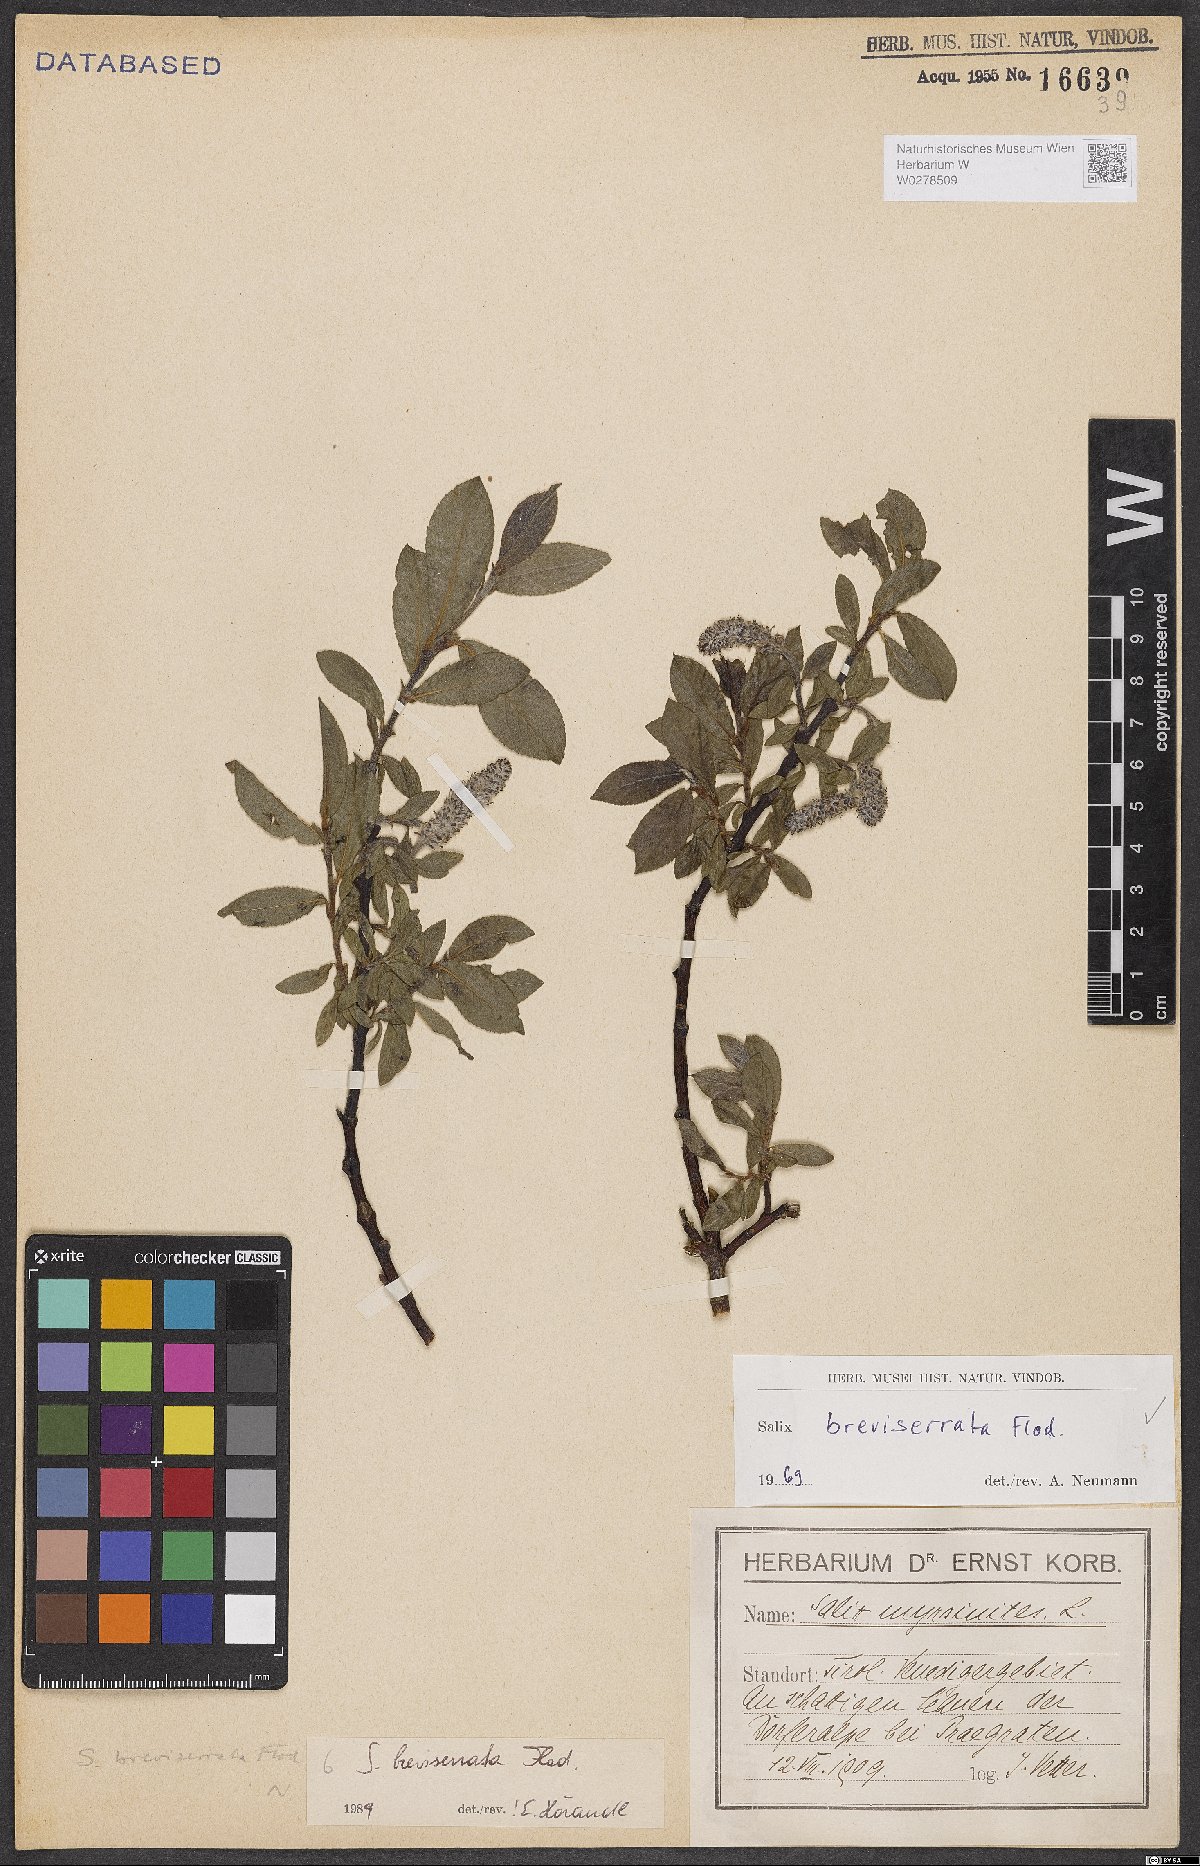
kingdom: Plantae
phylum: Tracheophyta
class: Magnoliopsida
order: Malpighiales
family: Salicaceae
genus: Salix
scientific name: Salix breviserrata
